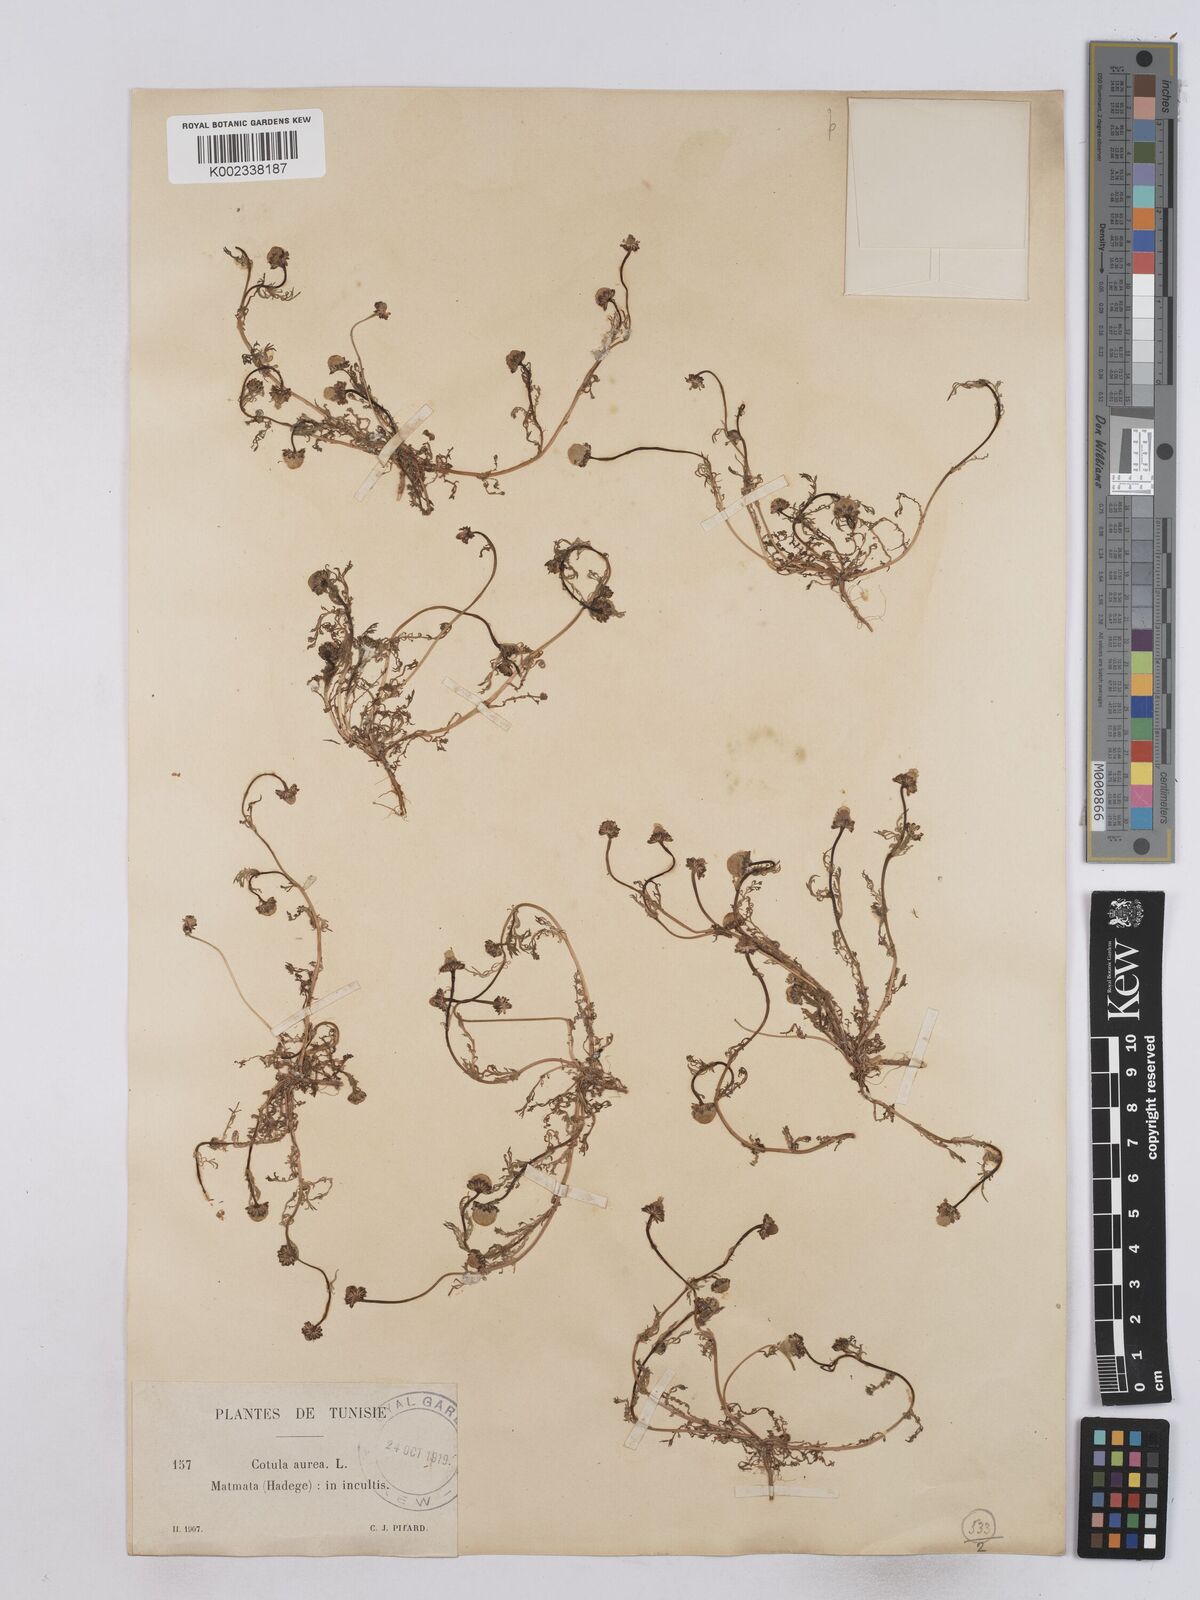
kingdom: Plantae
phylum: Tracheophyta
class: Magnoliopsida
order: Asterales
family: Asteraceae
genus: Matricaria
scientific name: Matricaria aurea
